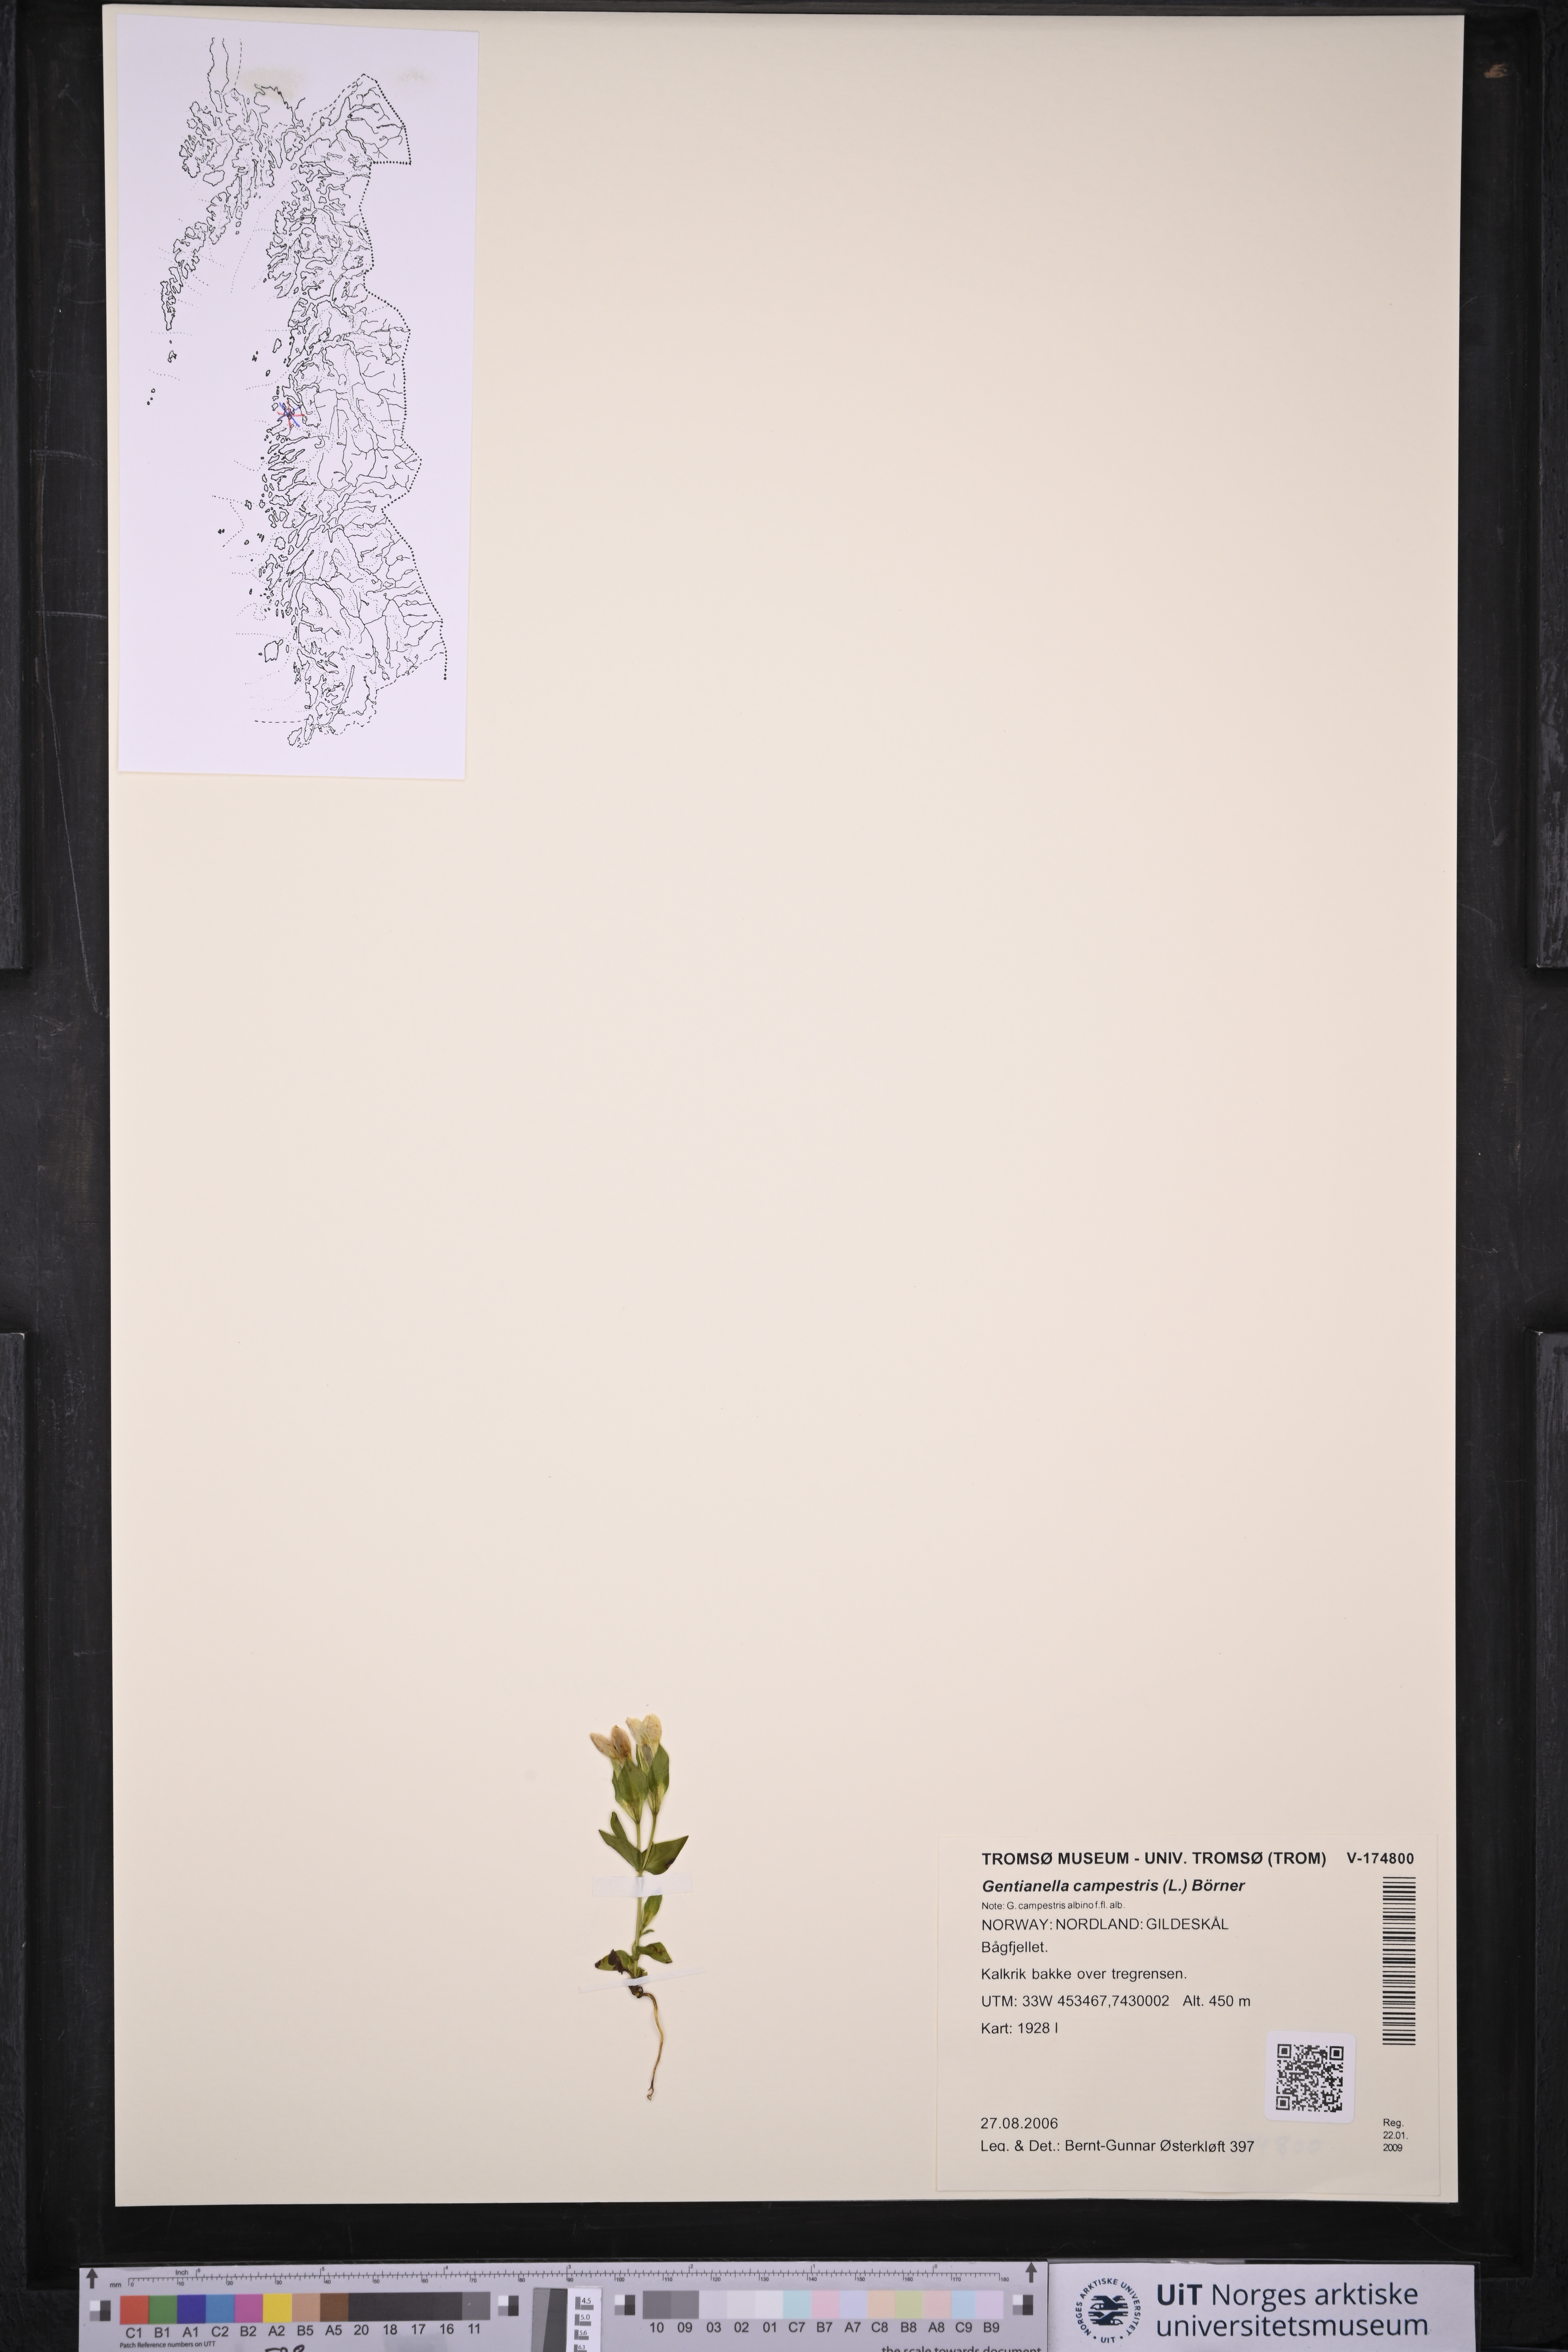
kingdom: Plantae
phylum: Tracheophyta
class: Magnoliopsida
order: Gentianales
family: Gentianaceae
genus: Gentianella
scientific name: Gentianella campestris
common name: Field gentian
